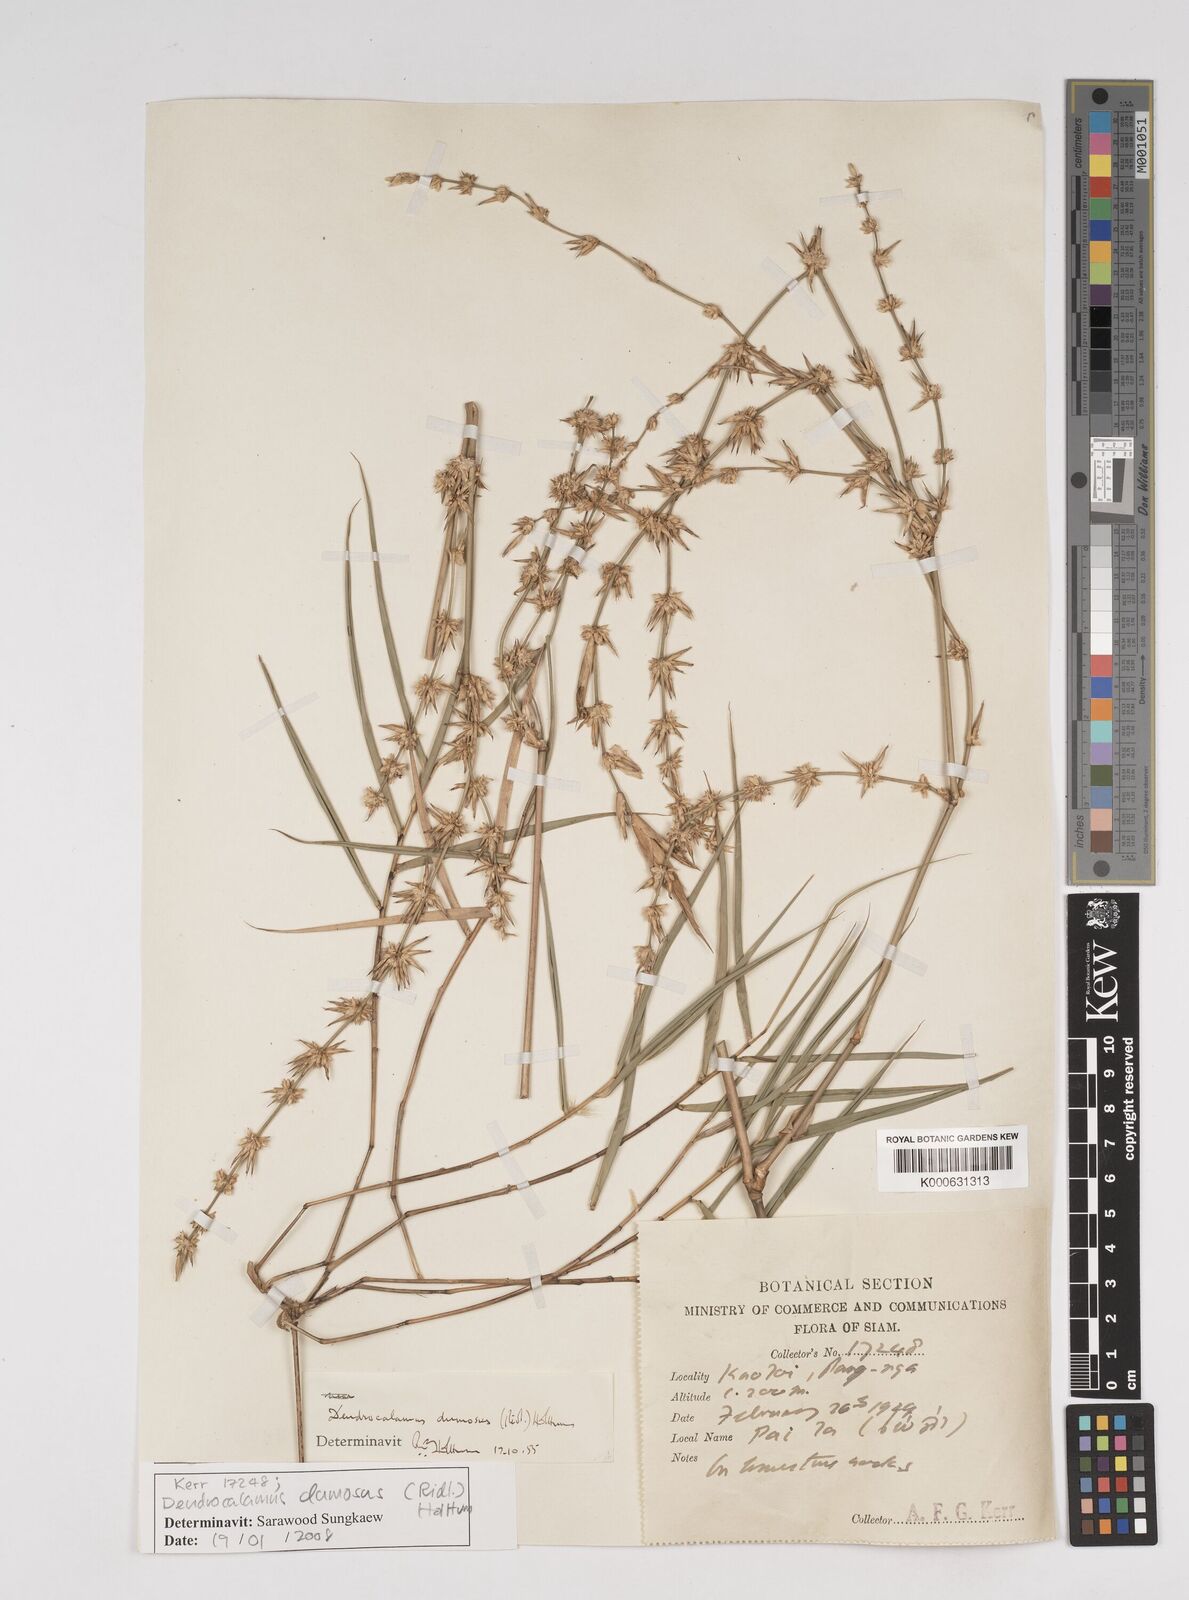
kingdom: Plantae
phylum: Tracheophyta
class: Liliopsida
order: Poales
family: Poaceae
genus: Dendrocalamus
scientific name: Dendrocalamus dumosus
